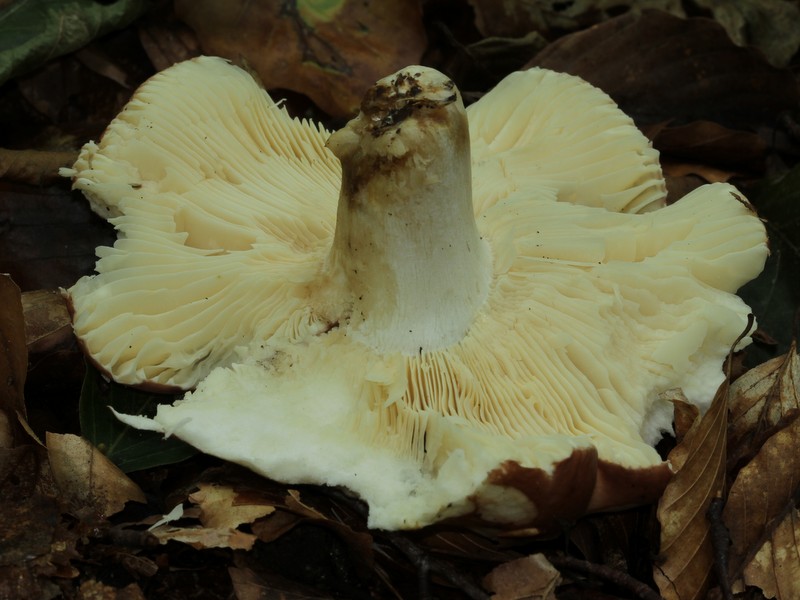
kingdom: Fungi
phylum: Basidiomycota
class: Agaricomycetes
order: Russulales
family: Russulaceae
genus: Russula
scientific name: Russula faginea
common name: bøge-skørhat
